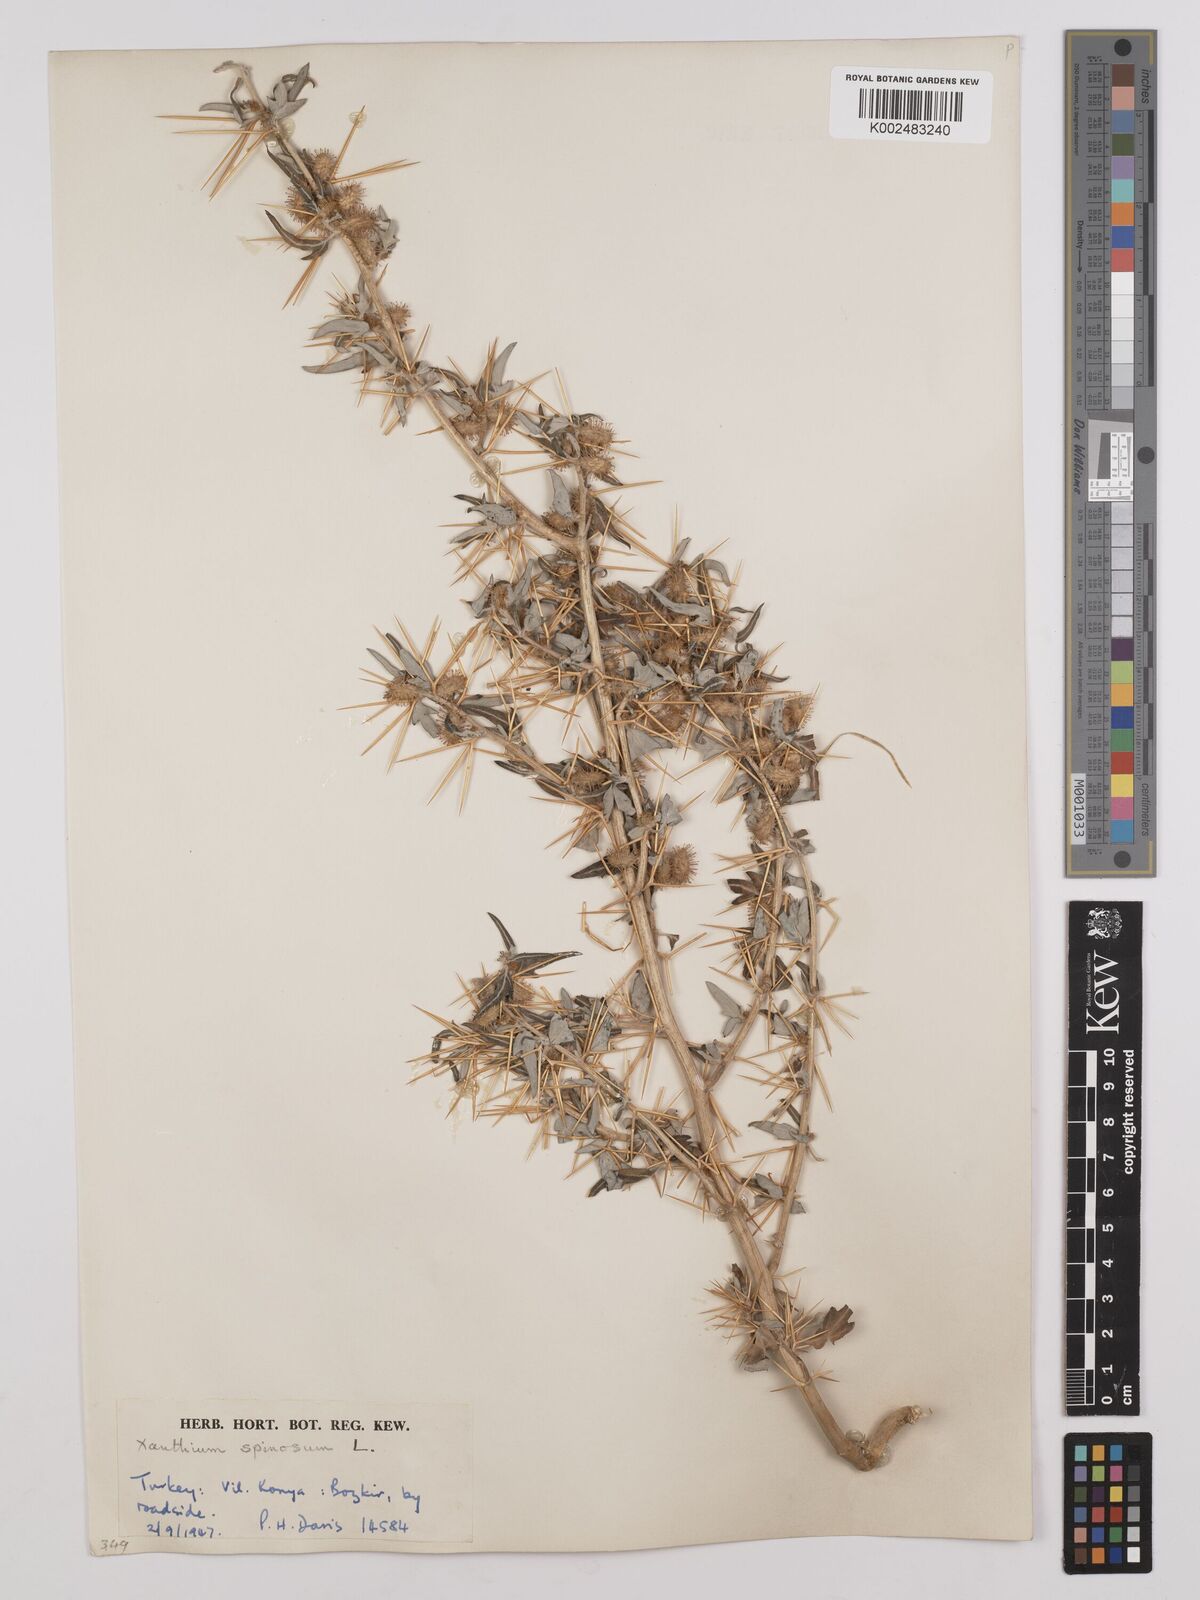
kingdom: Plantae
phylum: Tracheophyta
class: Magnoliopsida
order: Asterales
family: Asteraceae
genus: Xanthium
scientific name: Xanthium spinosum
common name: Spiny cocklebur
